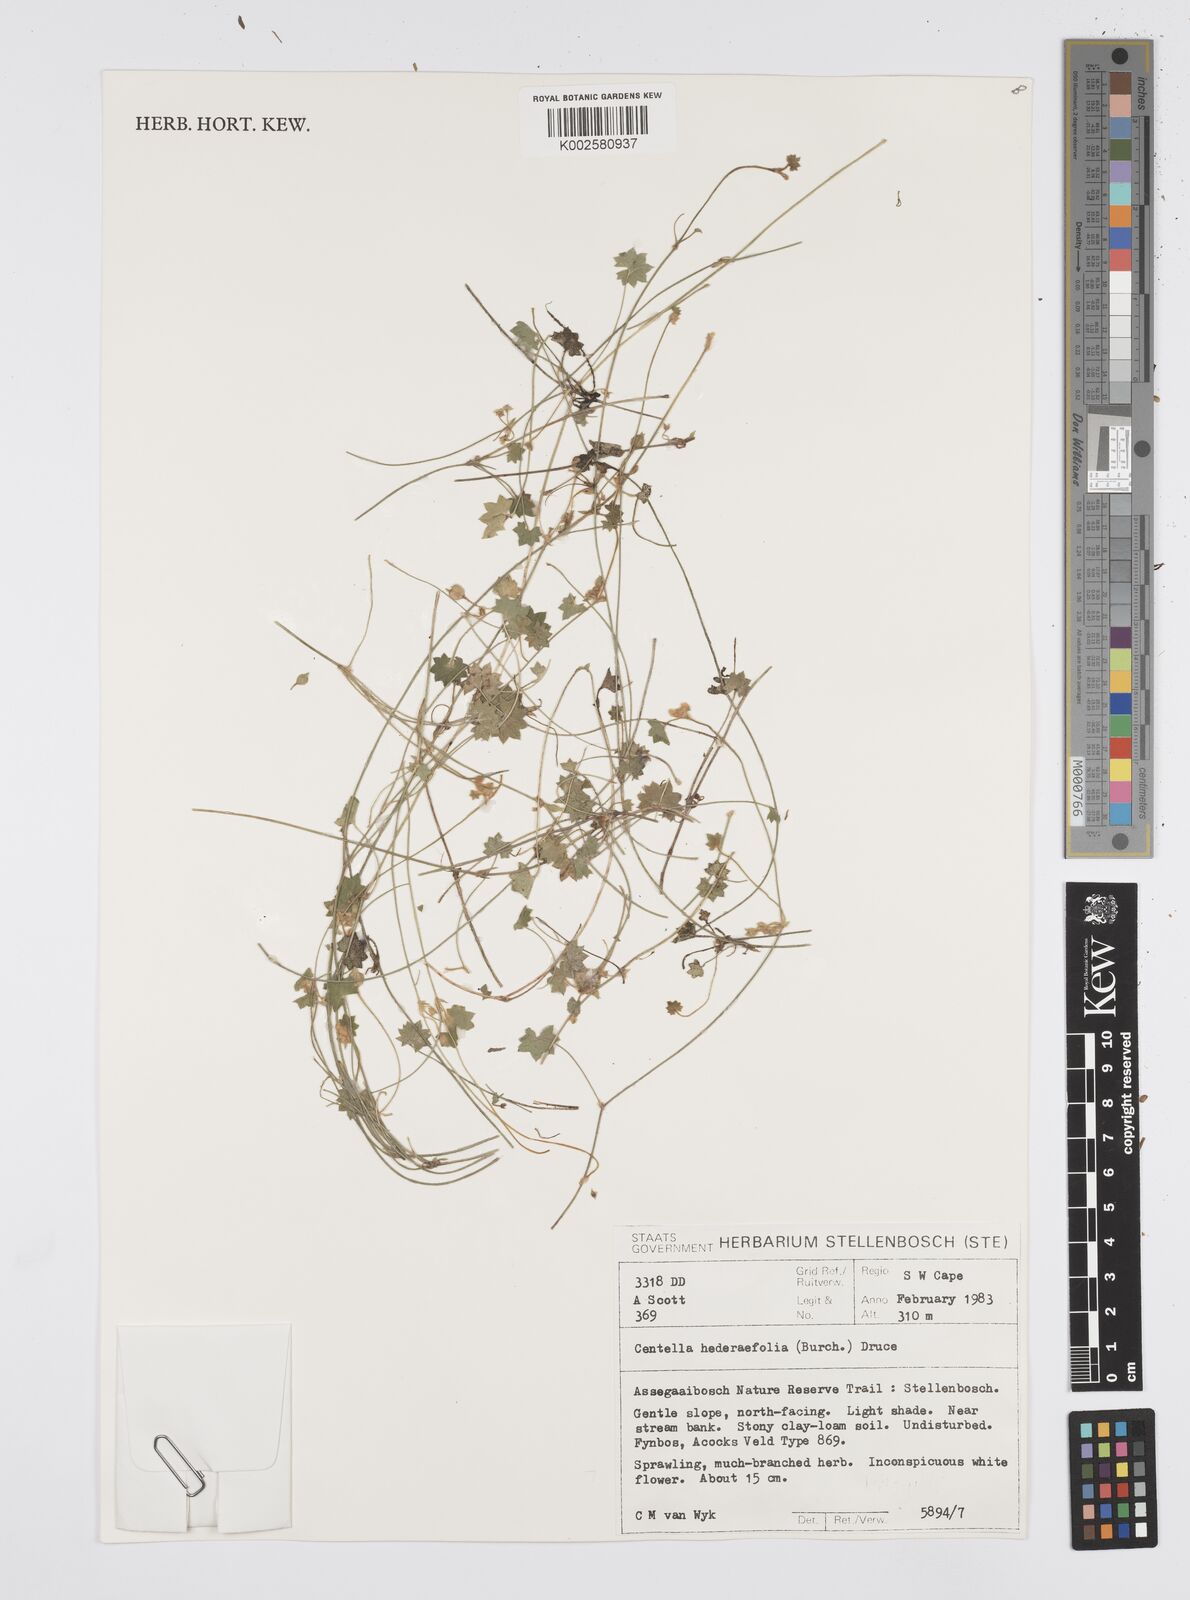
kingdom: Plantae
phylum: Tracheophyta
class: Magnoliopsida
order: Apiales
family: Apiaceae
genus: Centella
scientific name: Centella macroda
